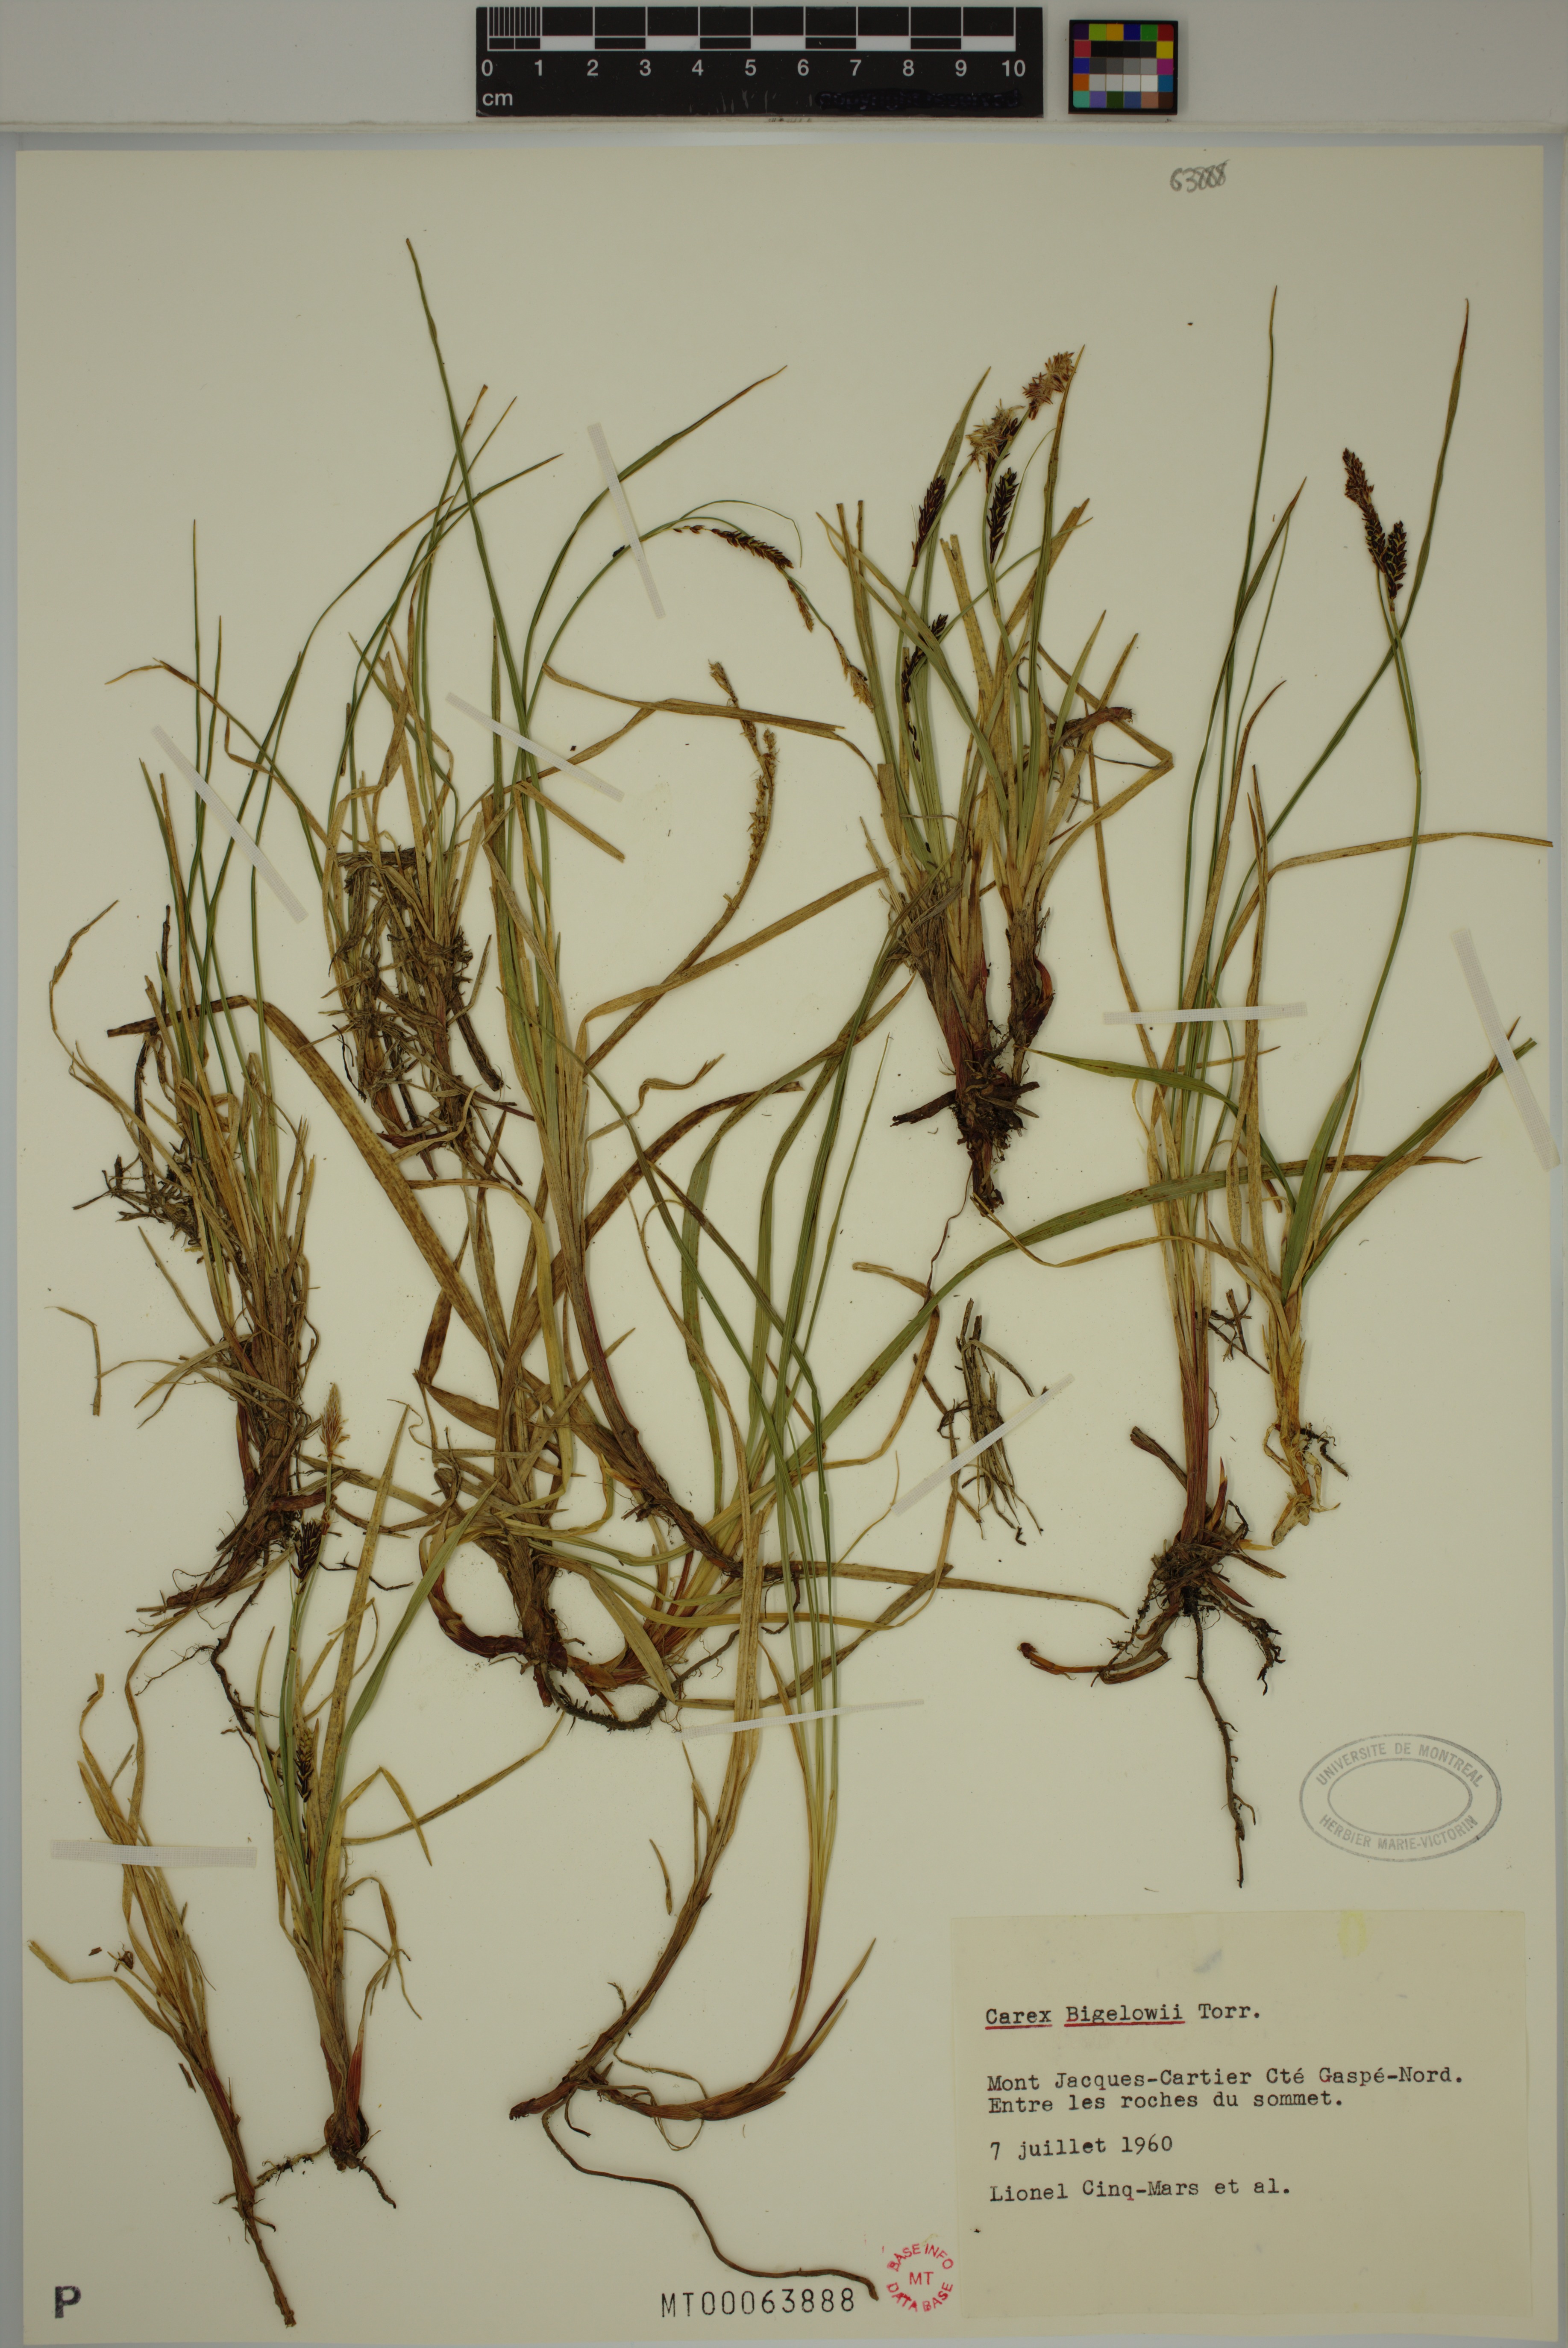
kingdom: Plantae
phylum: Tracheophyta
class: Liliopsida
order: Poales
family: Cyperaceae
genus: Carex
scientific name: Carex bigelowii
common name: Stiff sedge
